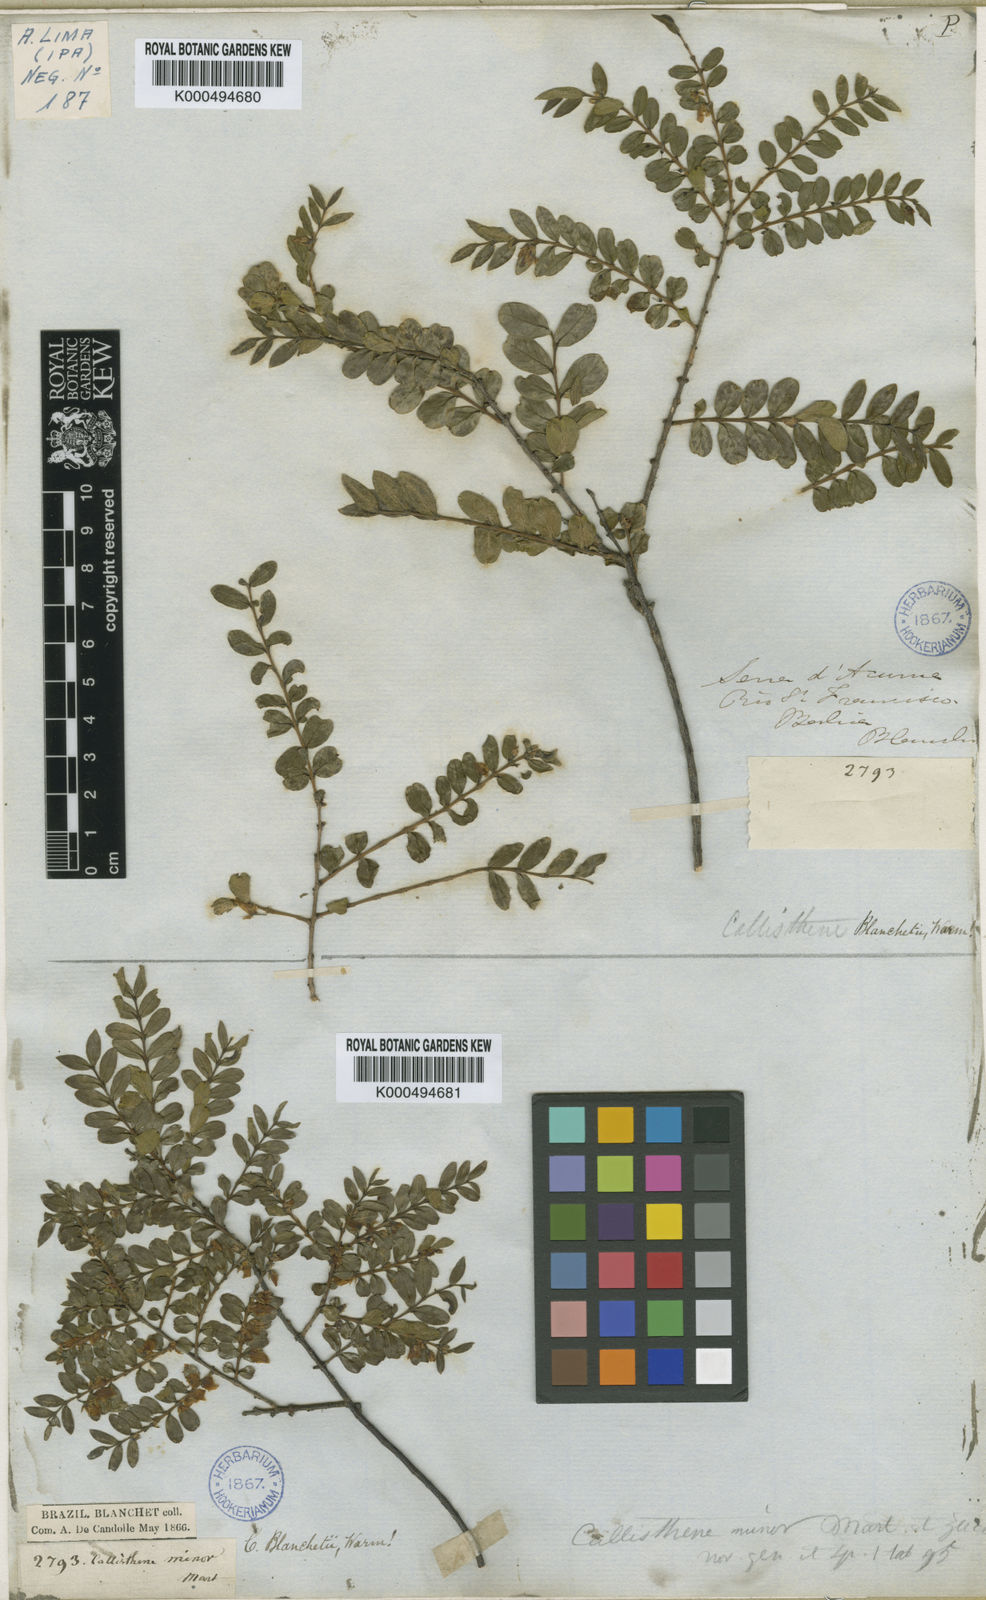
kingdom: Plantae
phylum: Tracheophyta
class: Magnoliopsida
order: Myrtales
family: Vochysiaceae
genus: Callisthene
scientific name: Callisthene minor
